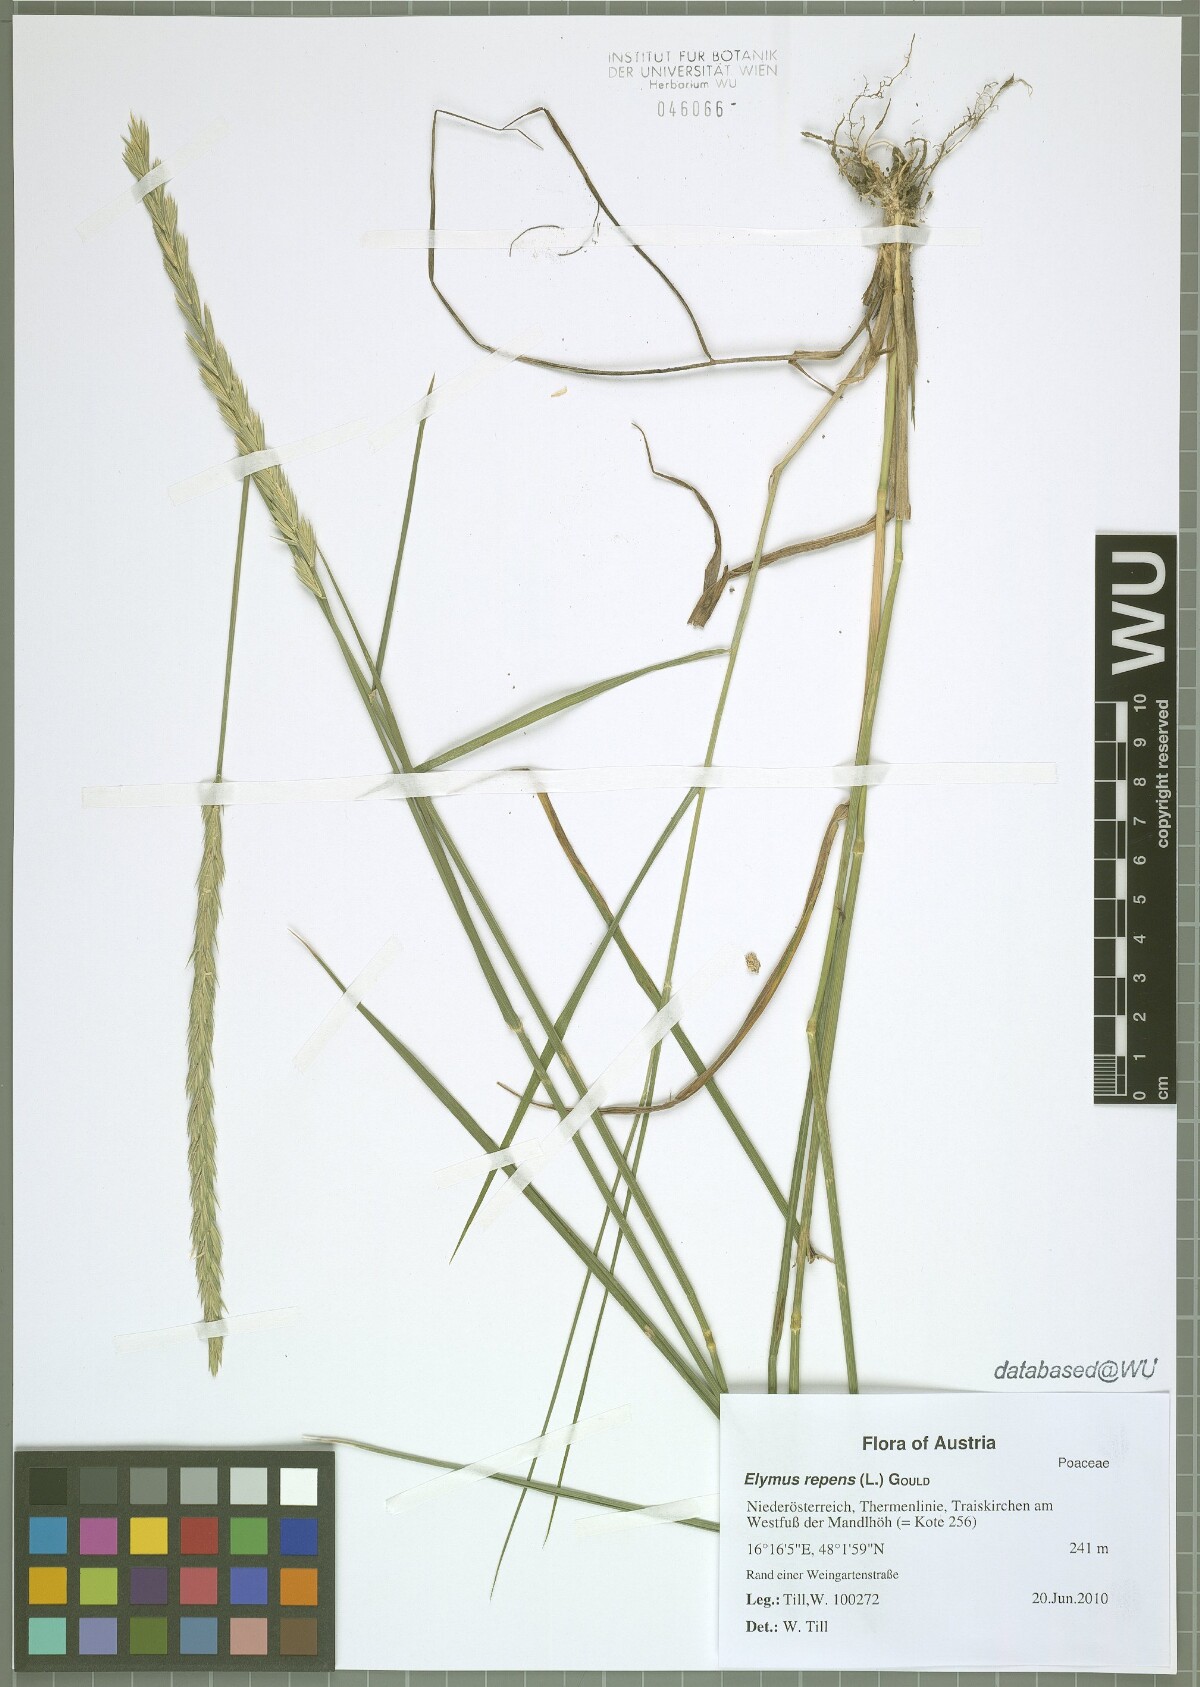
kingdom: Plantae
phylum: Tracheophyta
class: Liliopsida
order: Poales
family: Poaceae
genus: Elymus
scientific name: Elymus repens
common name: Quackgrass
